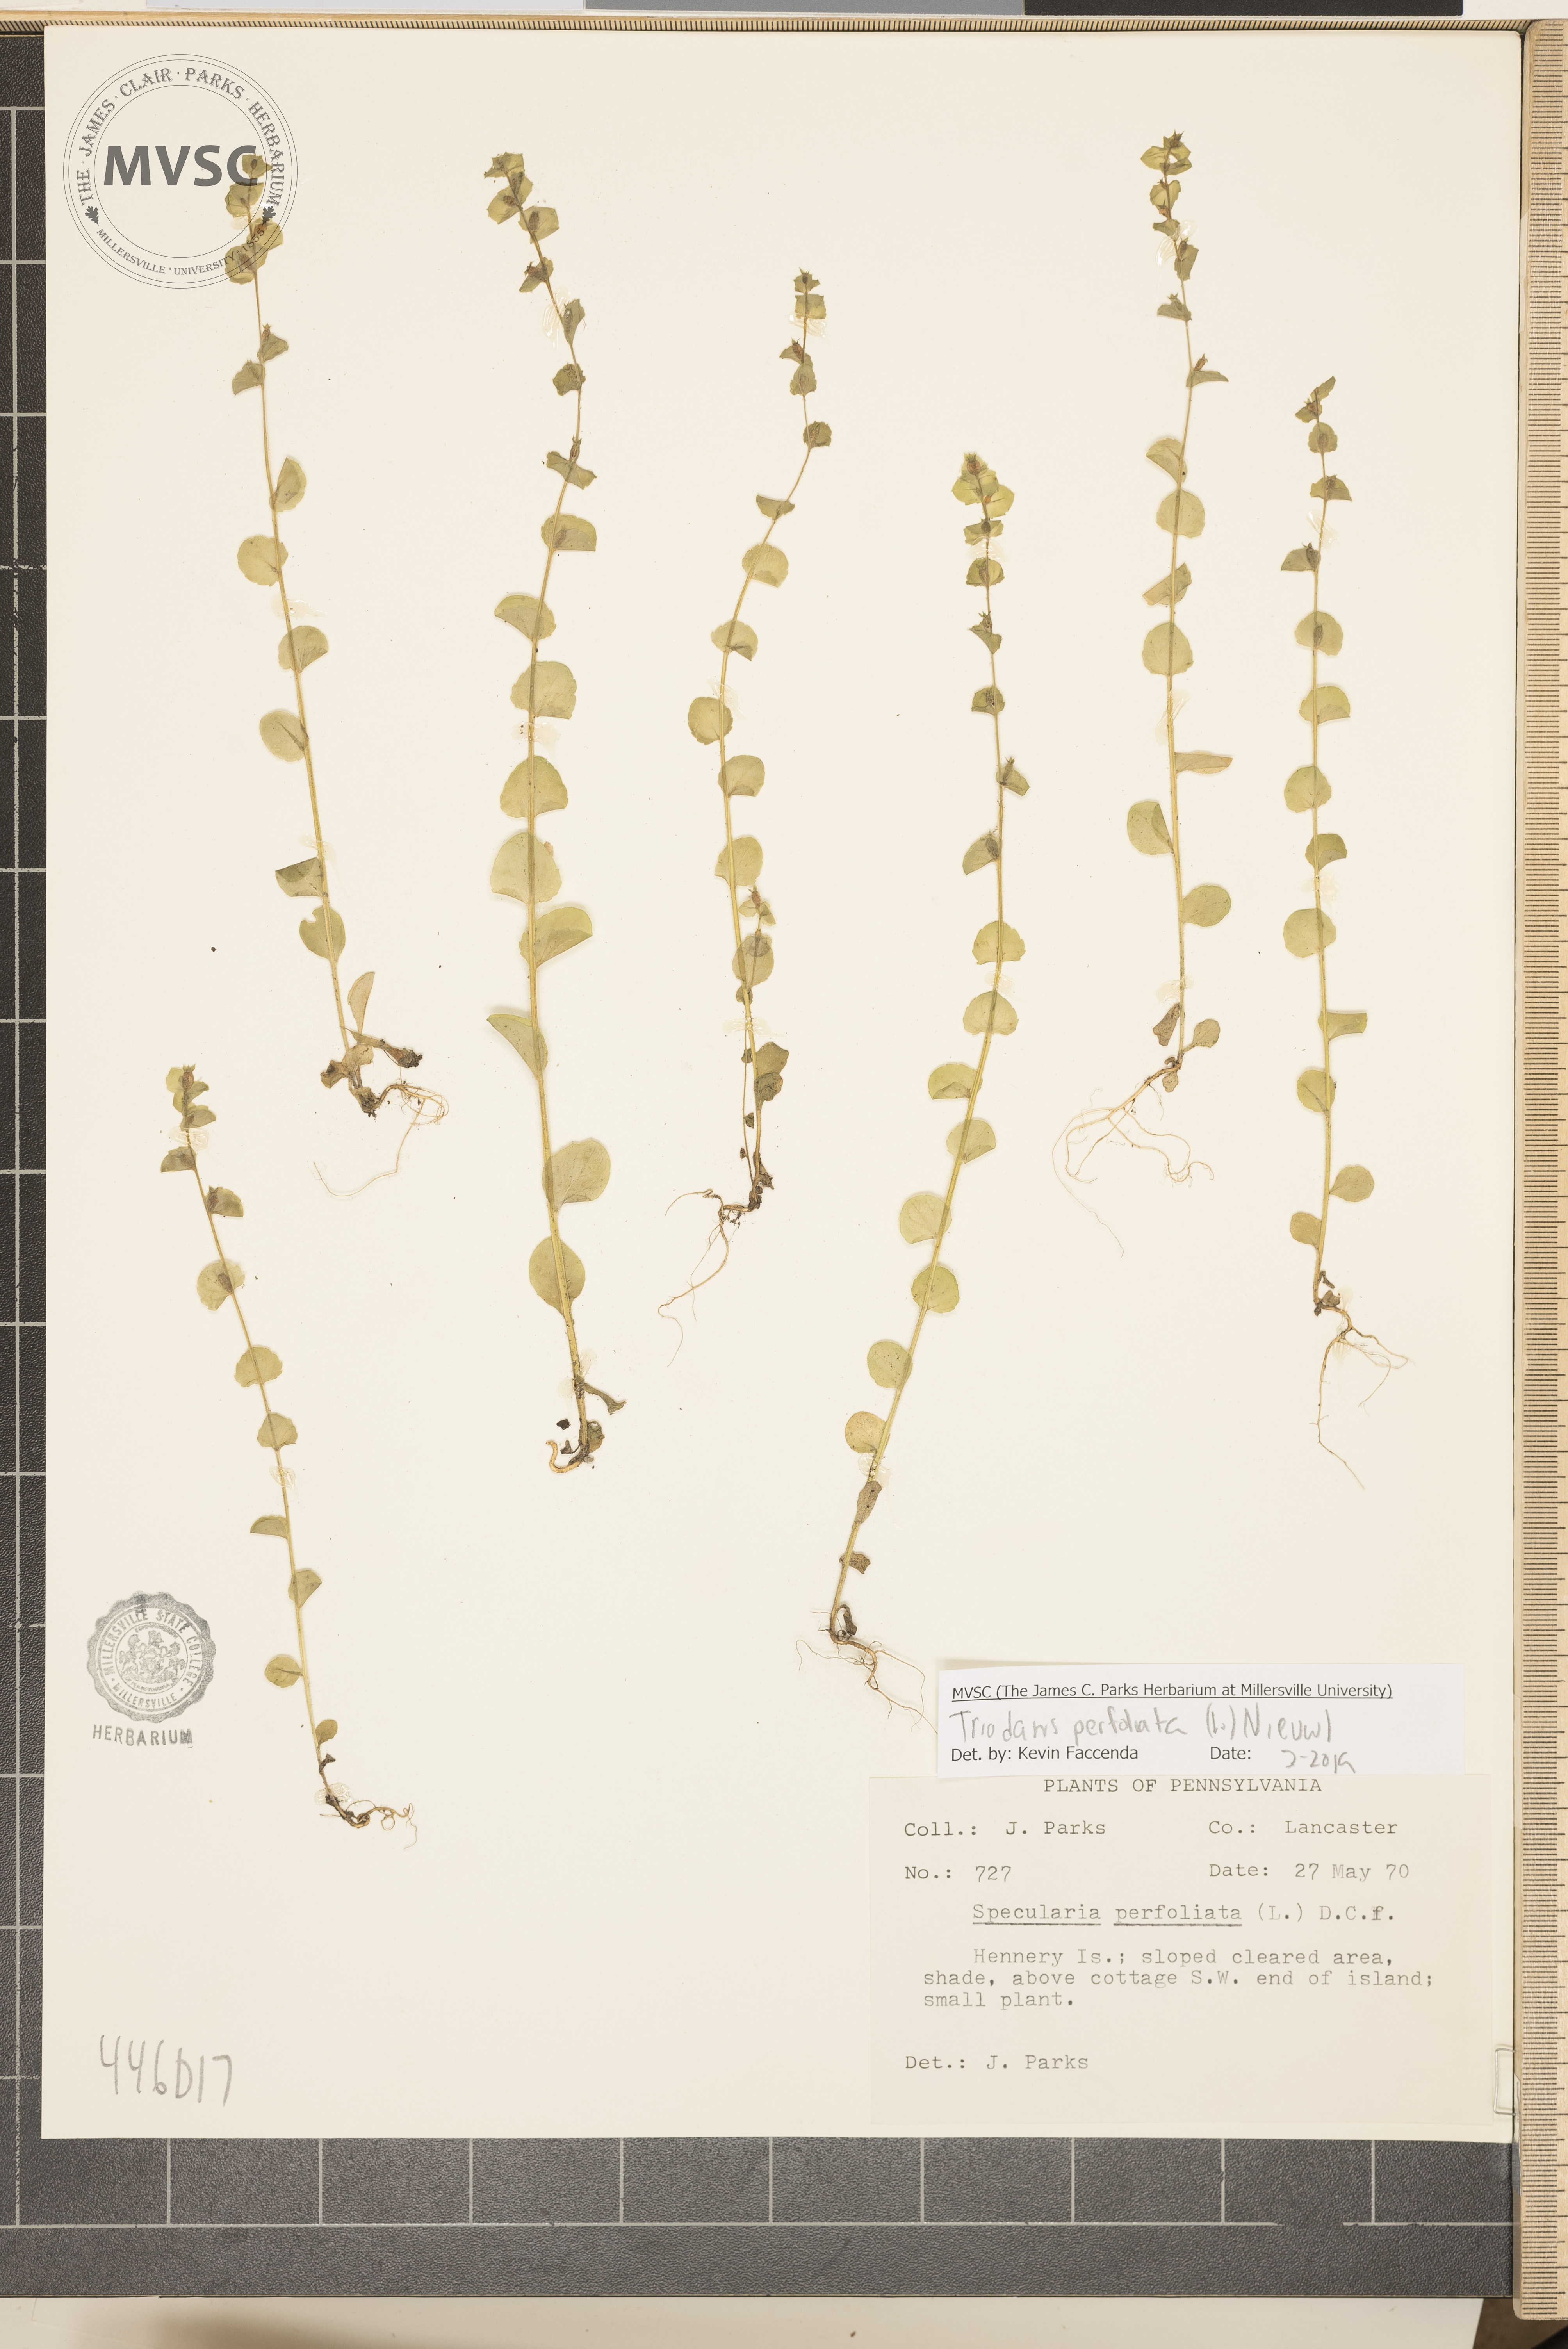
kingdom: Plantae
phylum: Tracheophyta
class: Magnoliopsida
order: Asterales
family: Campanulaceae
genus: Triodanis
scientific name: Triodanis perfoliata
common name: Clasping venus' looking-glass
